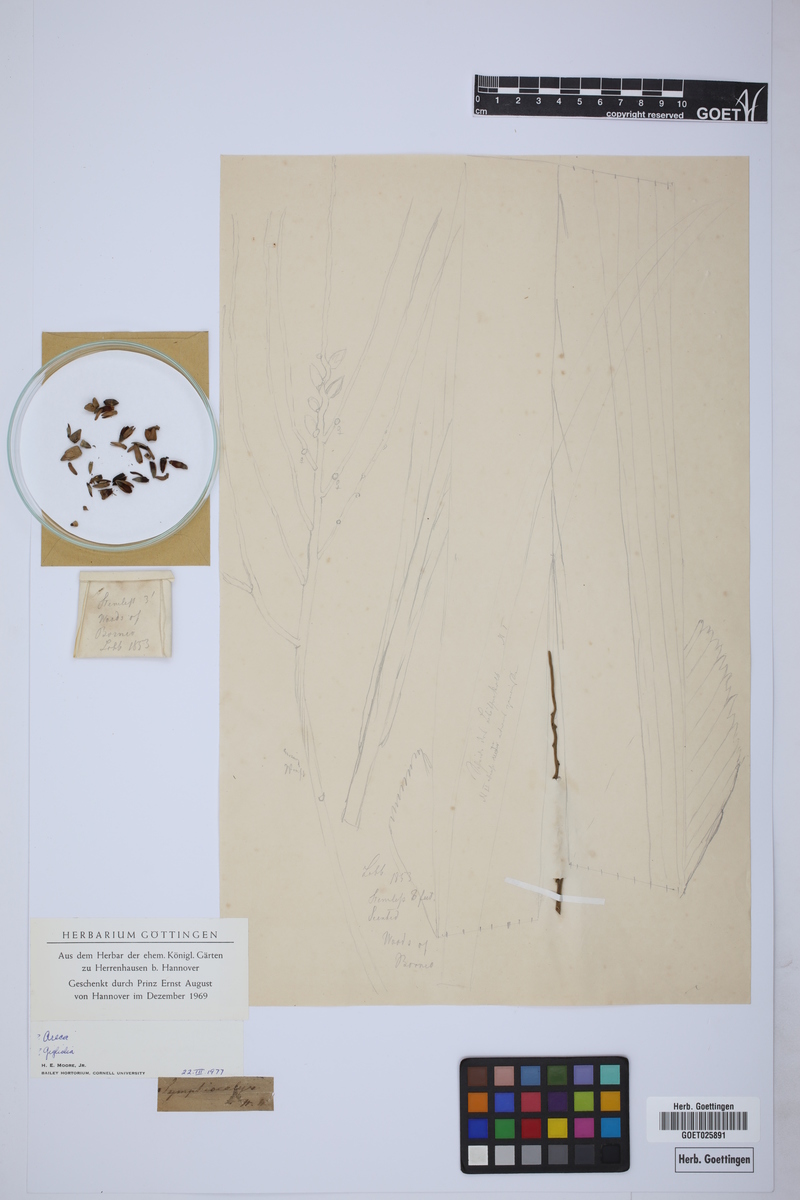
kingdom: Plantae
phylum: Tracheophyta
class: Liliopsida
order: Arecales
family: Arecaceae
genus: Areca
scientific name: Areca
